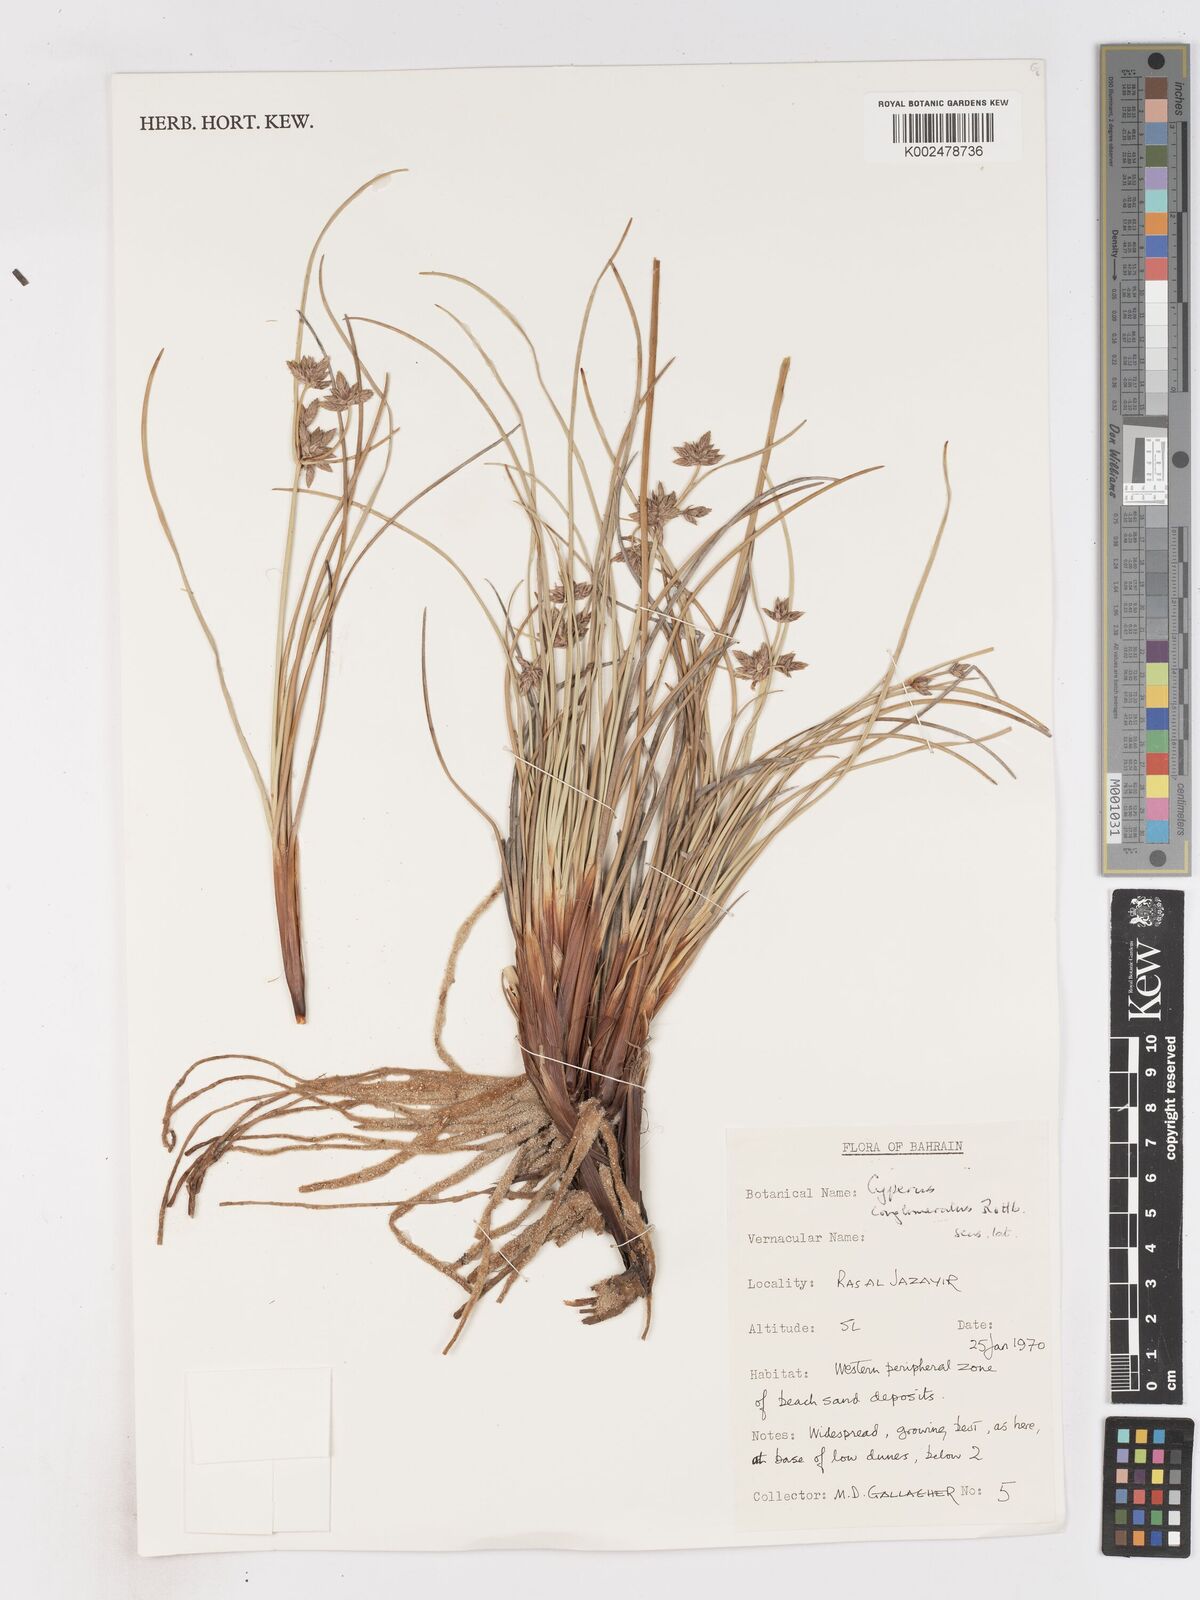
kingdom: Plantae
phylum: Tracheophyta
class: Liliopsida
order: Poales
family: Cyperaceae
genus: Cyperus
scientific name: Cyperus conglomeratus
